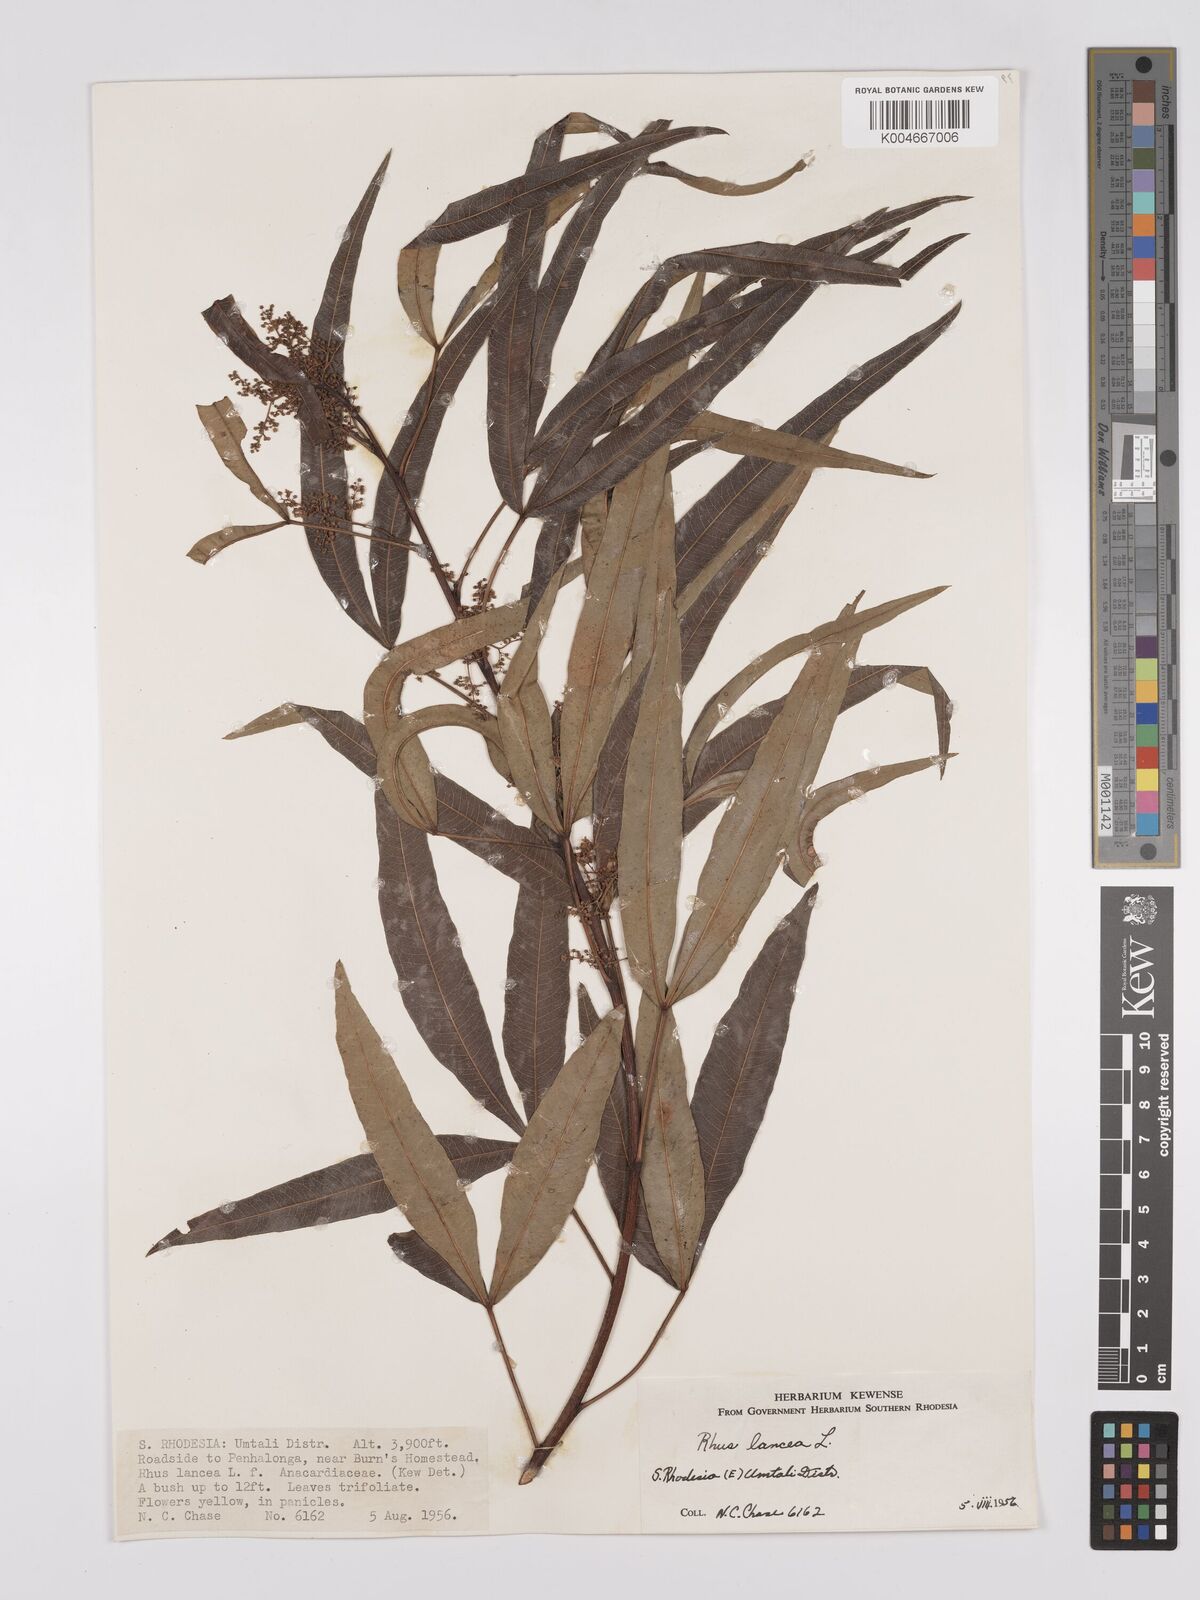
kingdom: Plantae
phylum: Tracheophyta
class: Magnoliopsida
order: Sapindales
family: Anacardiaceae
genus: Searsia
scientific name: Searsia lancea
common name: Cashew
